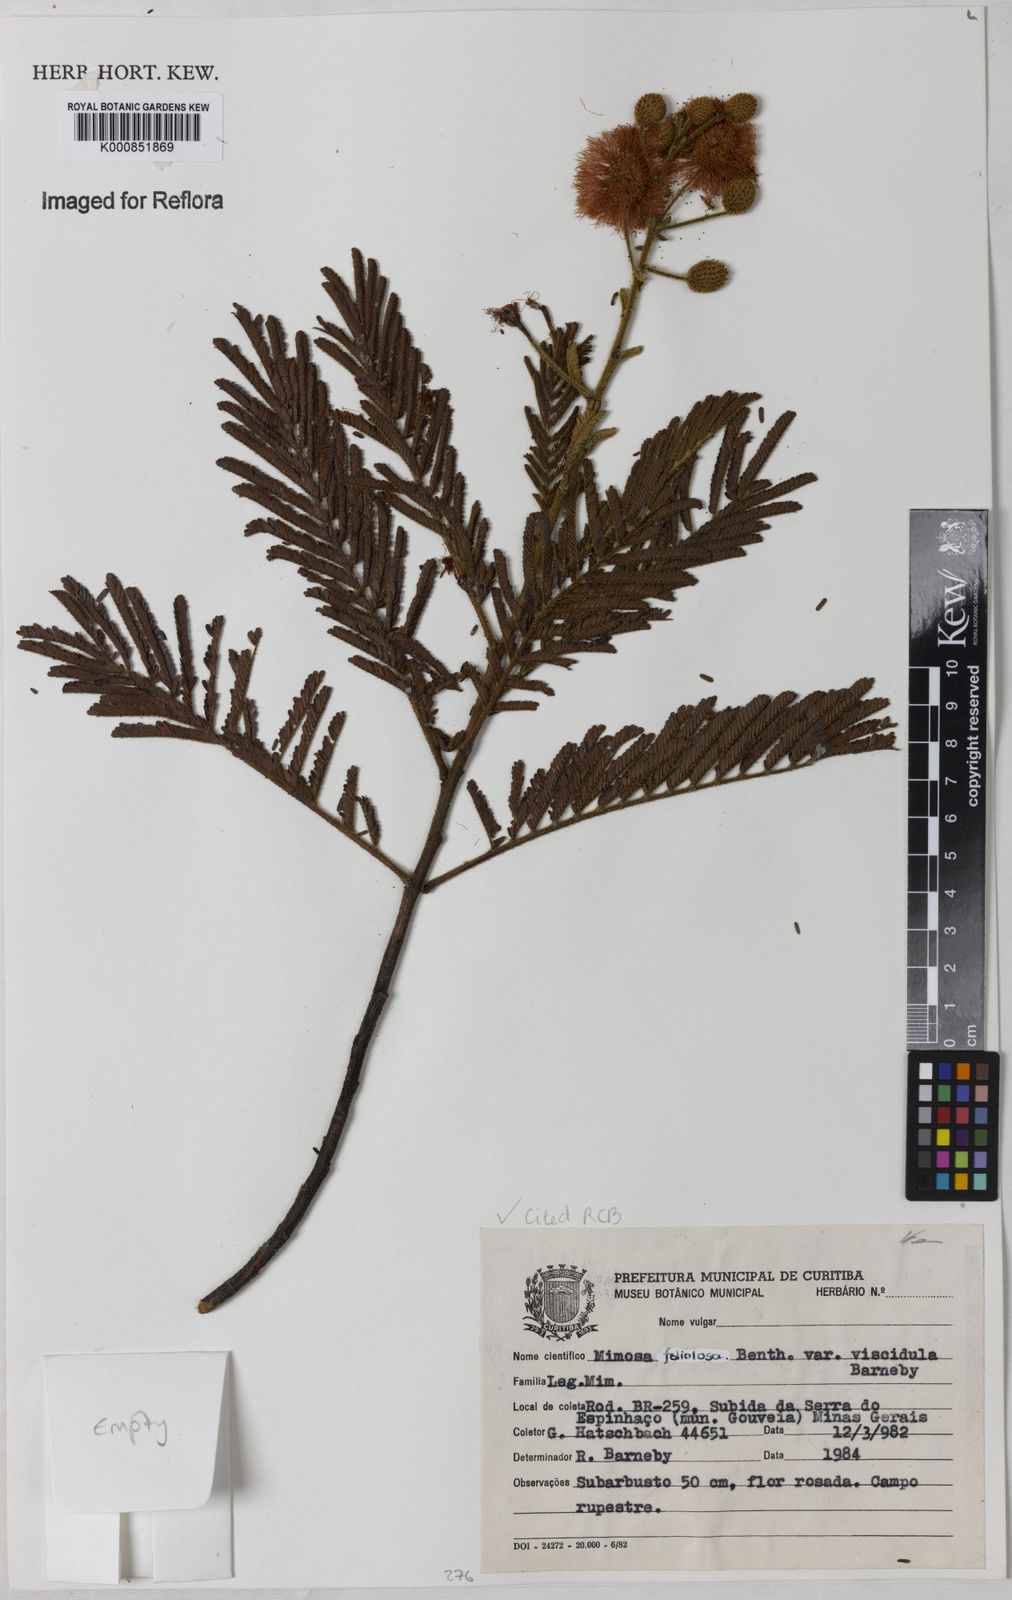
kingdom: Plantae
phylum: Tracheophyta
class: Magnoliopsida
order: Fabales
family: Fabaceae
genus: Mimosa
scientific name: Mimosa foliolosa
